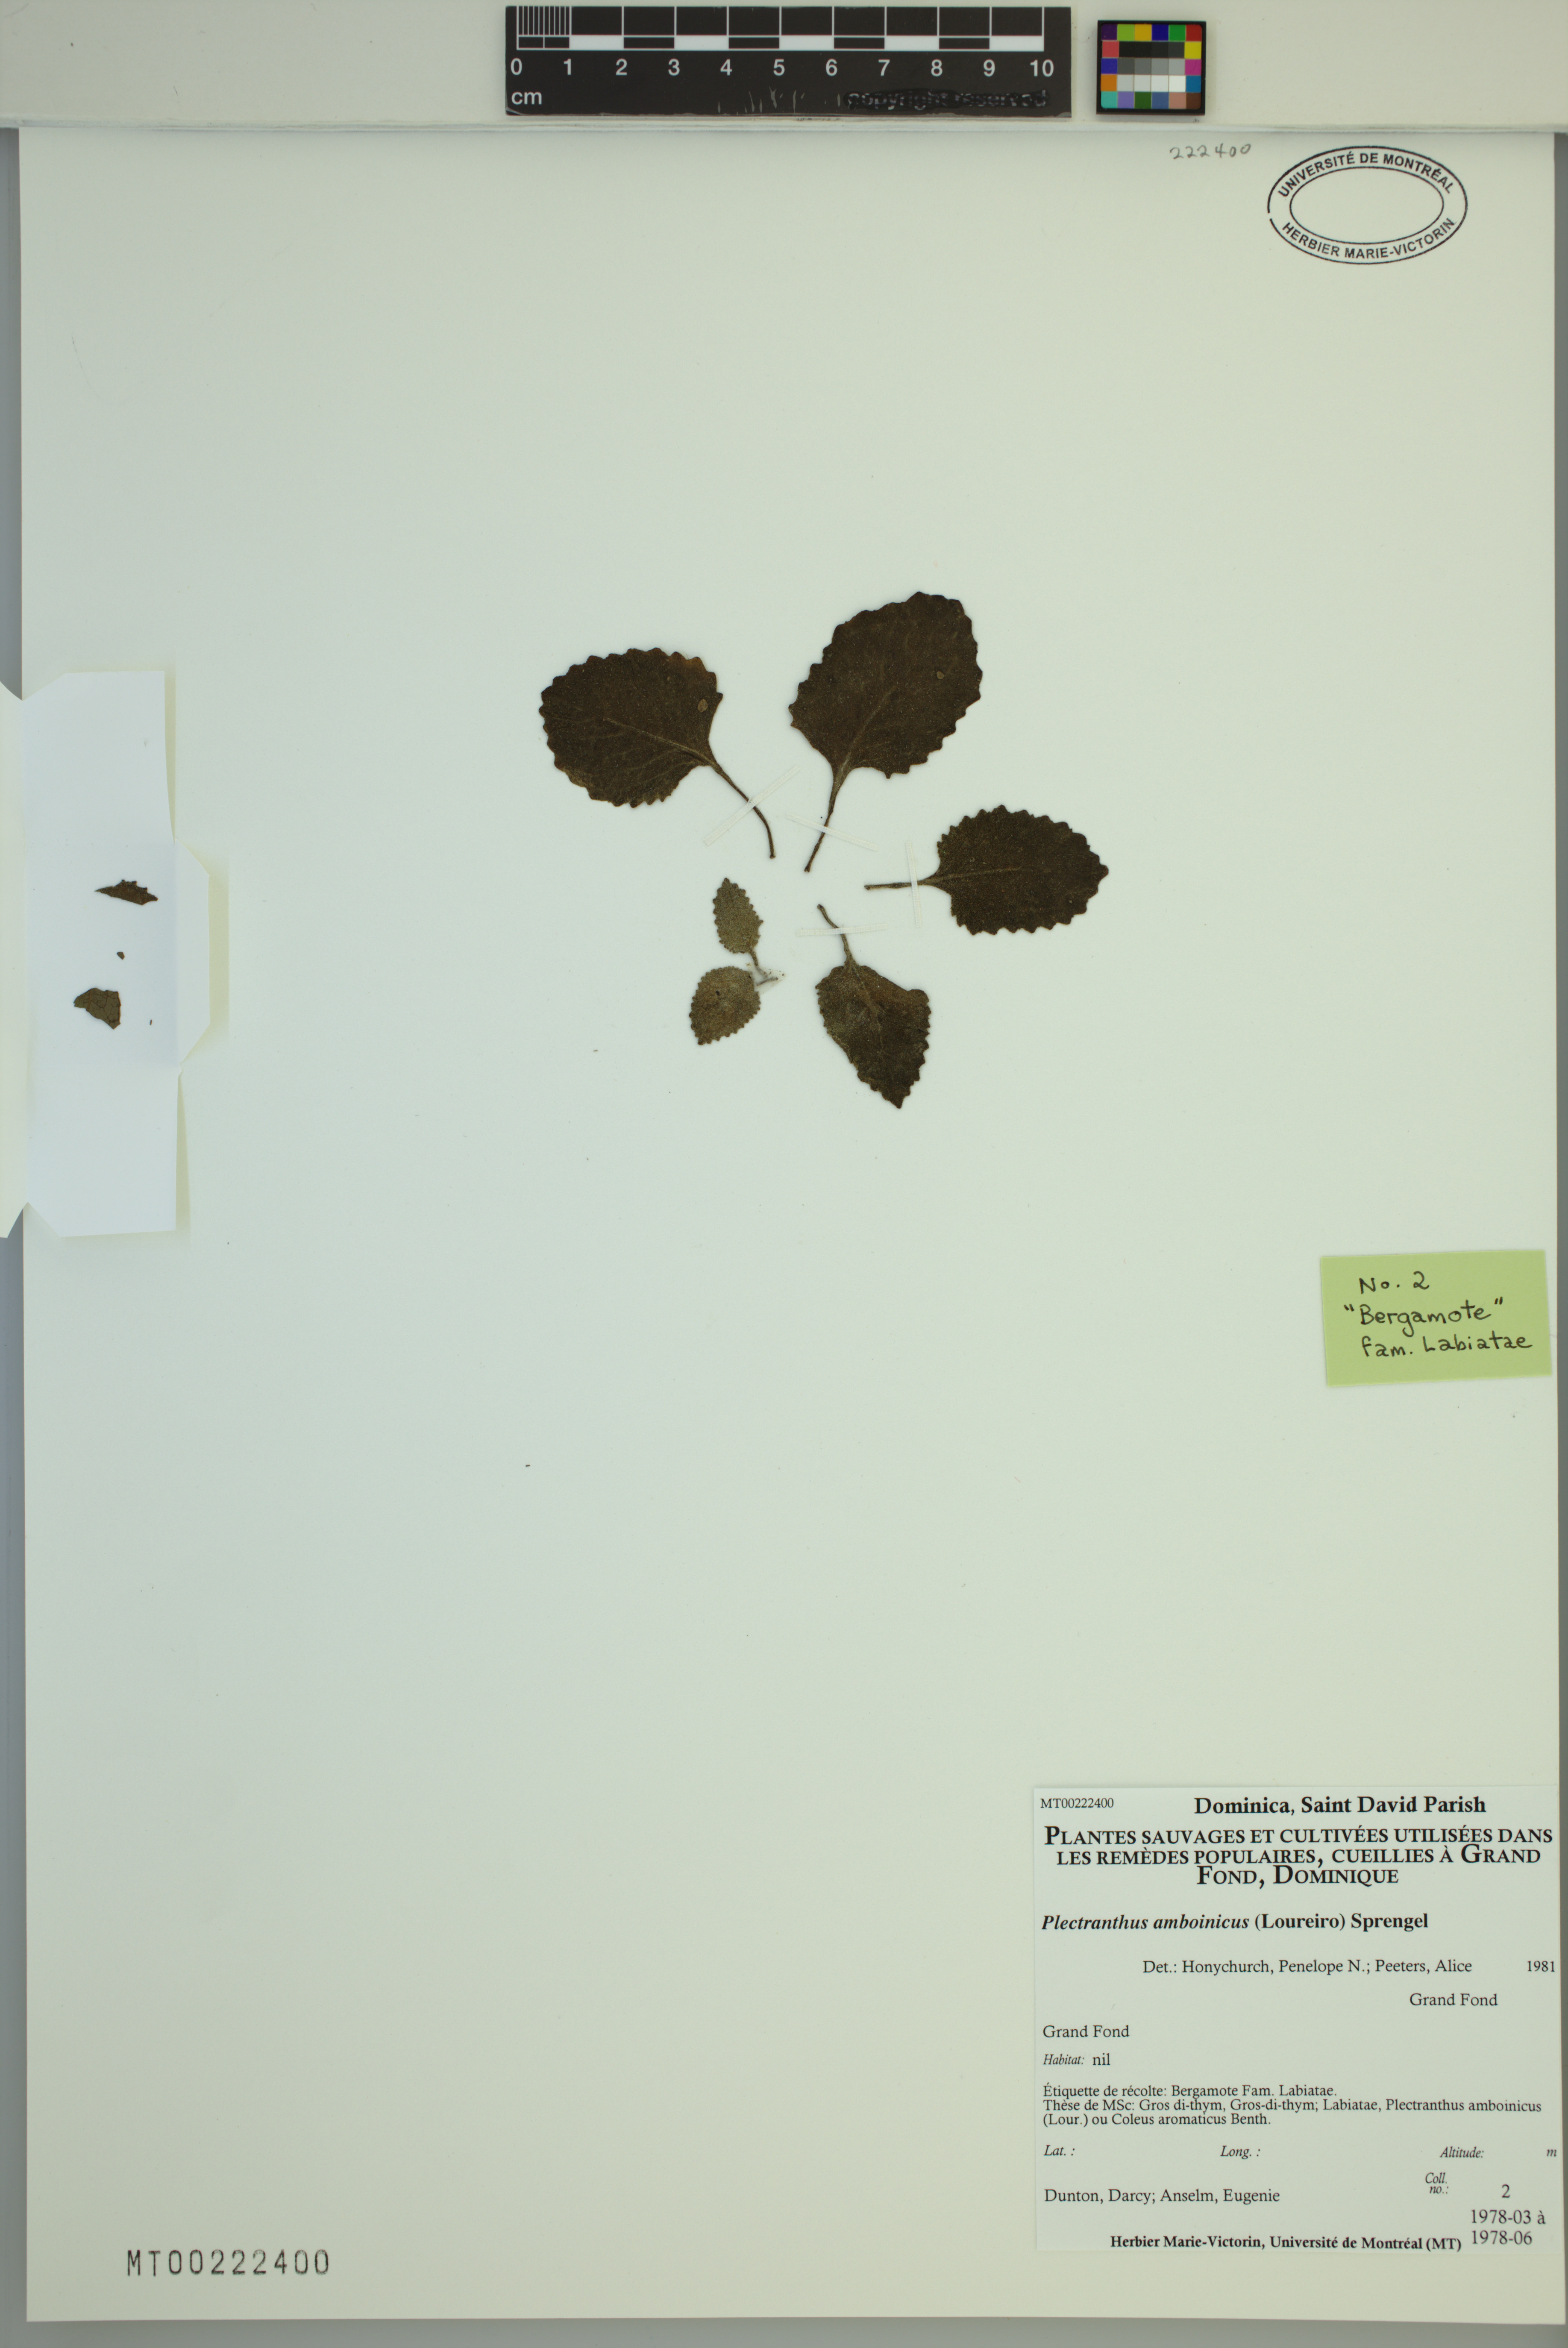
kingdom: Plantae
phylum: Tracheophyta
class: Magnoliopsida
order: Lamiales
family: Lamiaceae
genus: Coleus
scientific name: Coleus amboinicus
